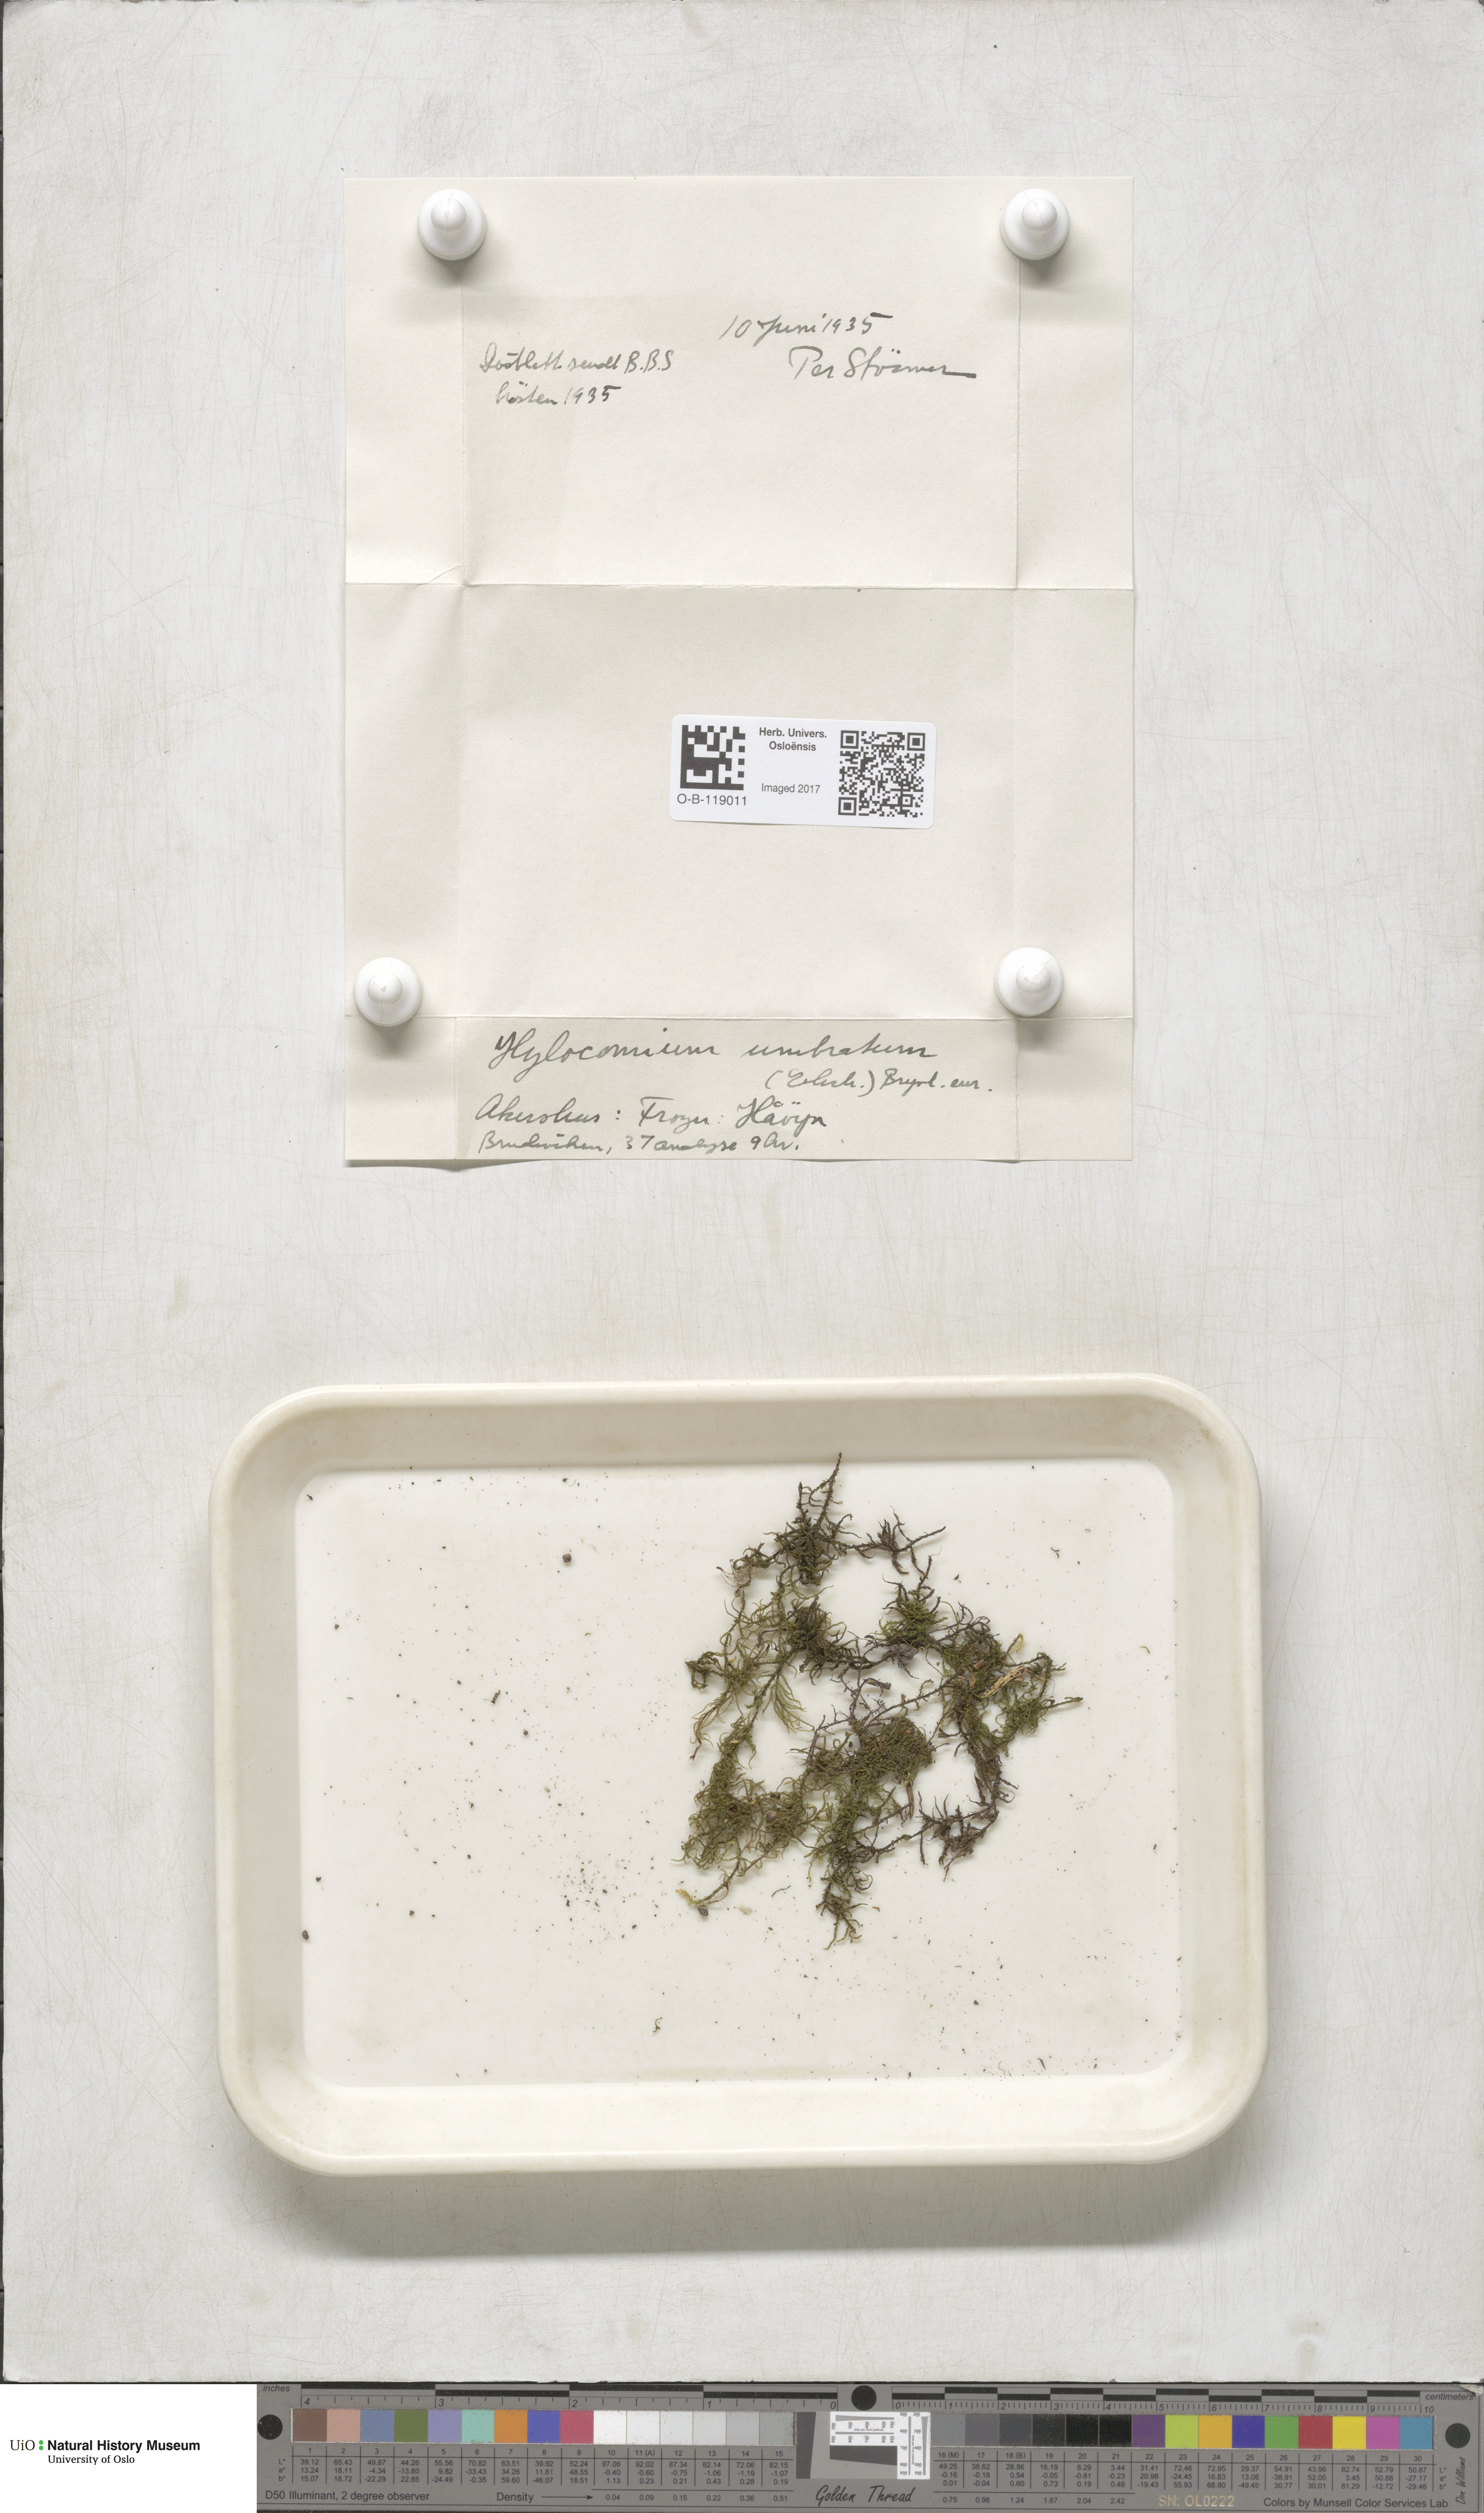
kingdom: Plantae
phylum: Bryophyta
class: Bryopsida
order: Hypnales
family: Hylocomiaceae
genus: Hylocomiastrum
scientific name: Hylocomiastrum umbratum
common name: Shaded woods moss
